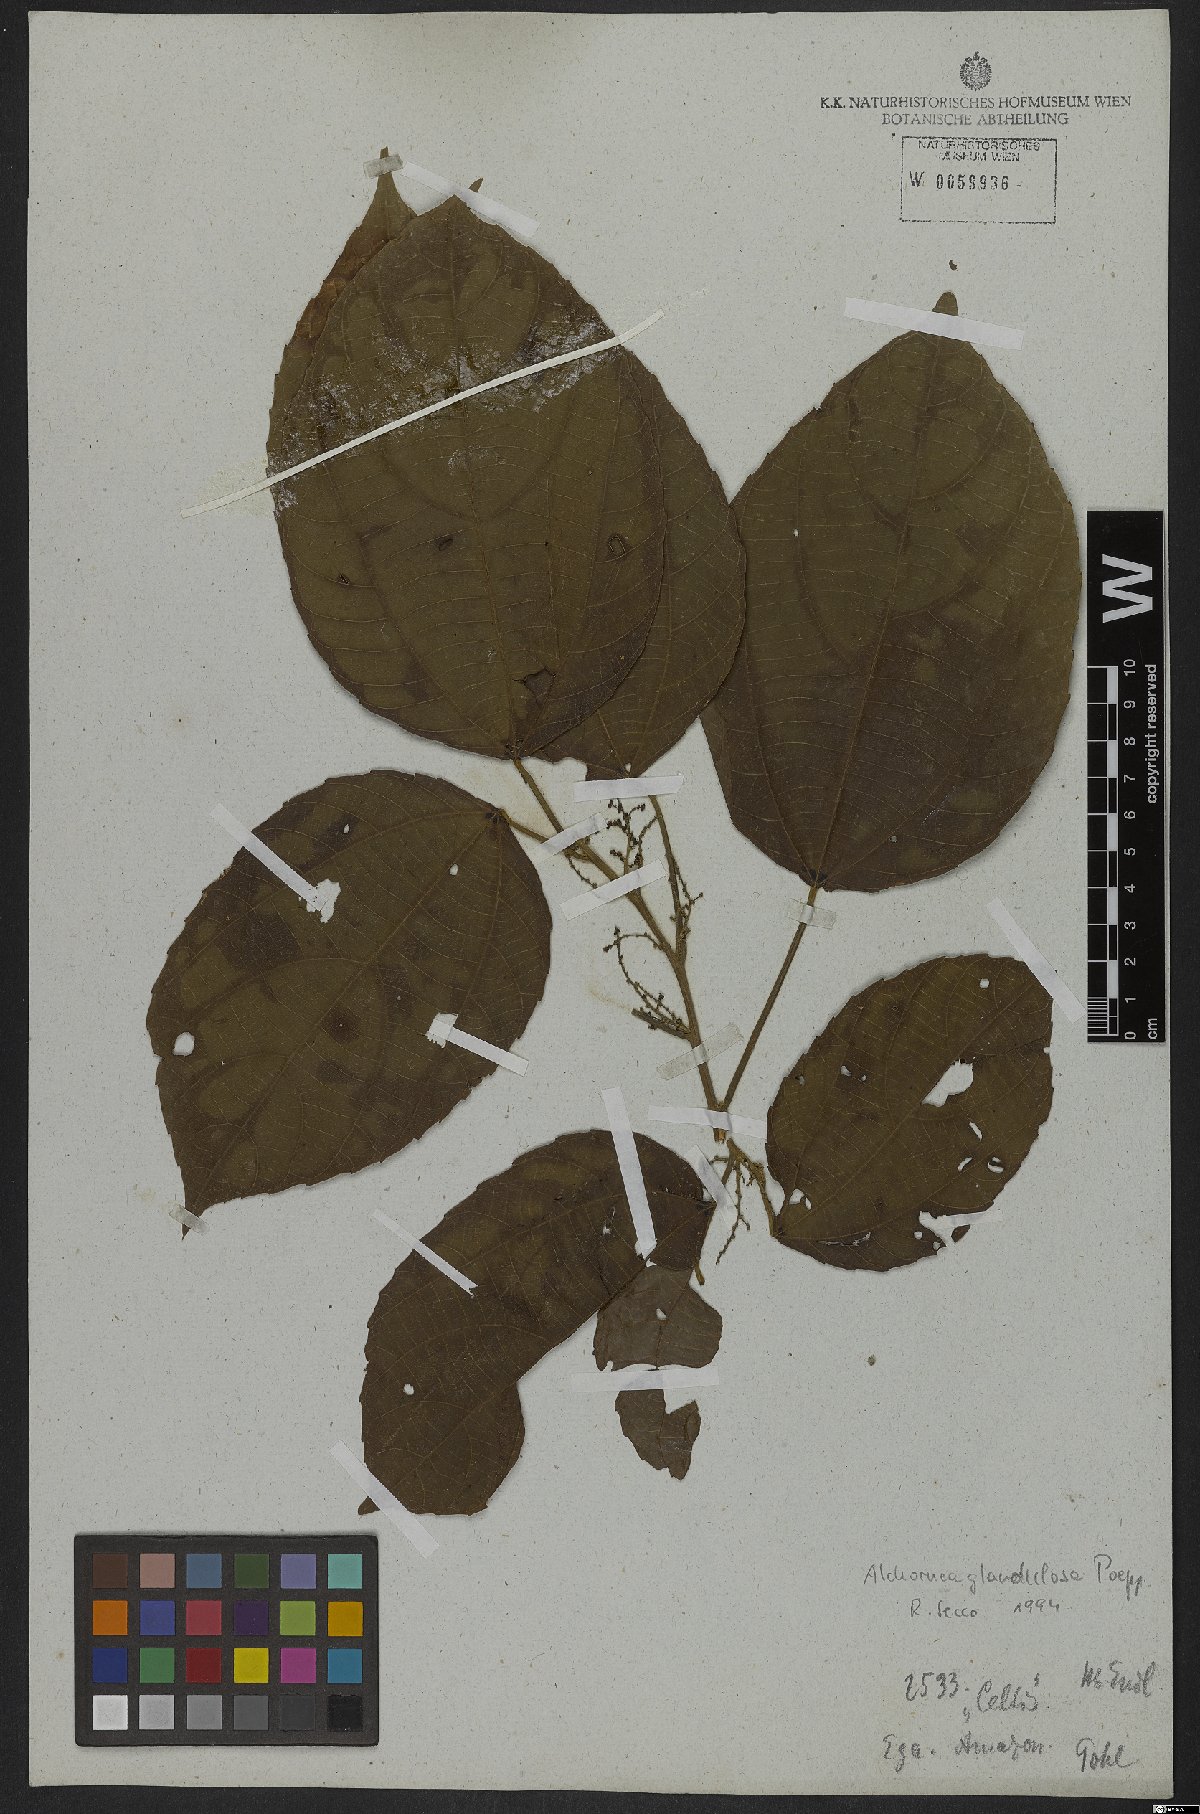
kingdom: Plantae
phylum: Tracheophyta
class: Magnoliopsida
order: Malpighiales
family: Euphorbiaceae
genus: Alchornea
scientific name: Alchornea glandulosa
